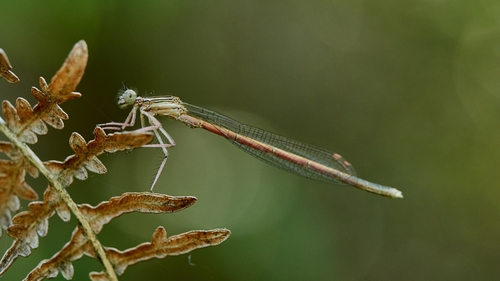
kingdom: Animalia
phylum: Arthropoda
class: Insecta
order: Odonata
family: Platycnemididae
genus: Platycnemis
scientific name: Platycnemis acutipennis
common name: Orange featherleg
